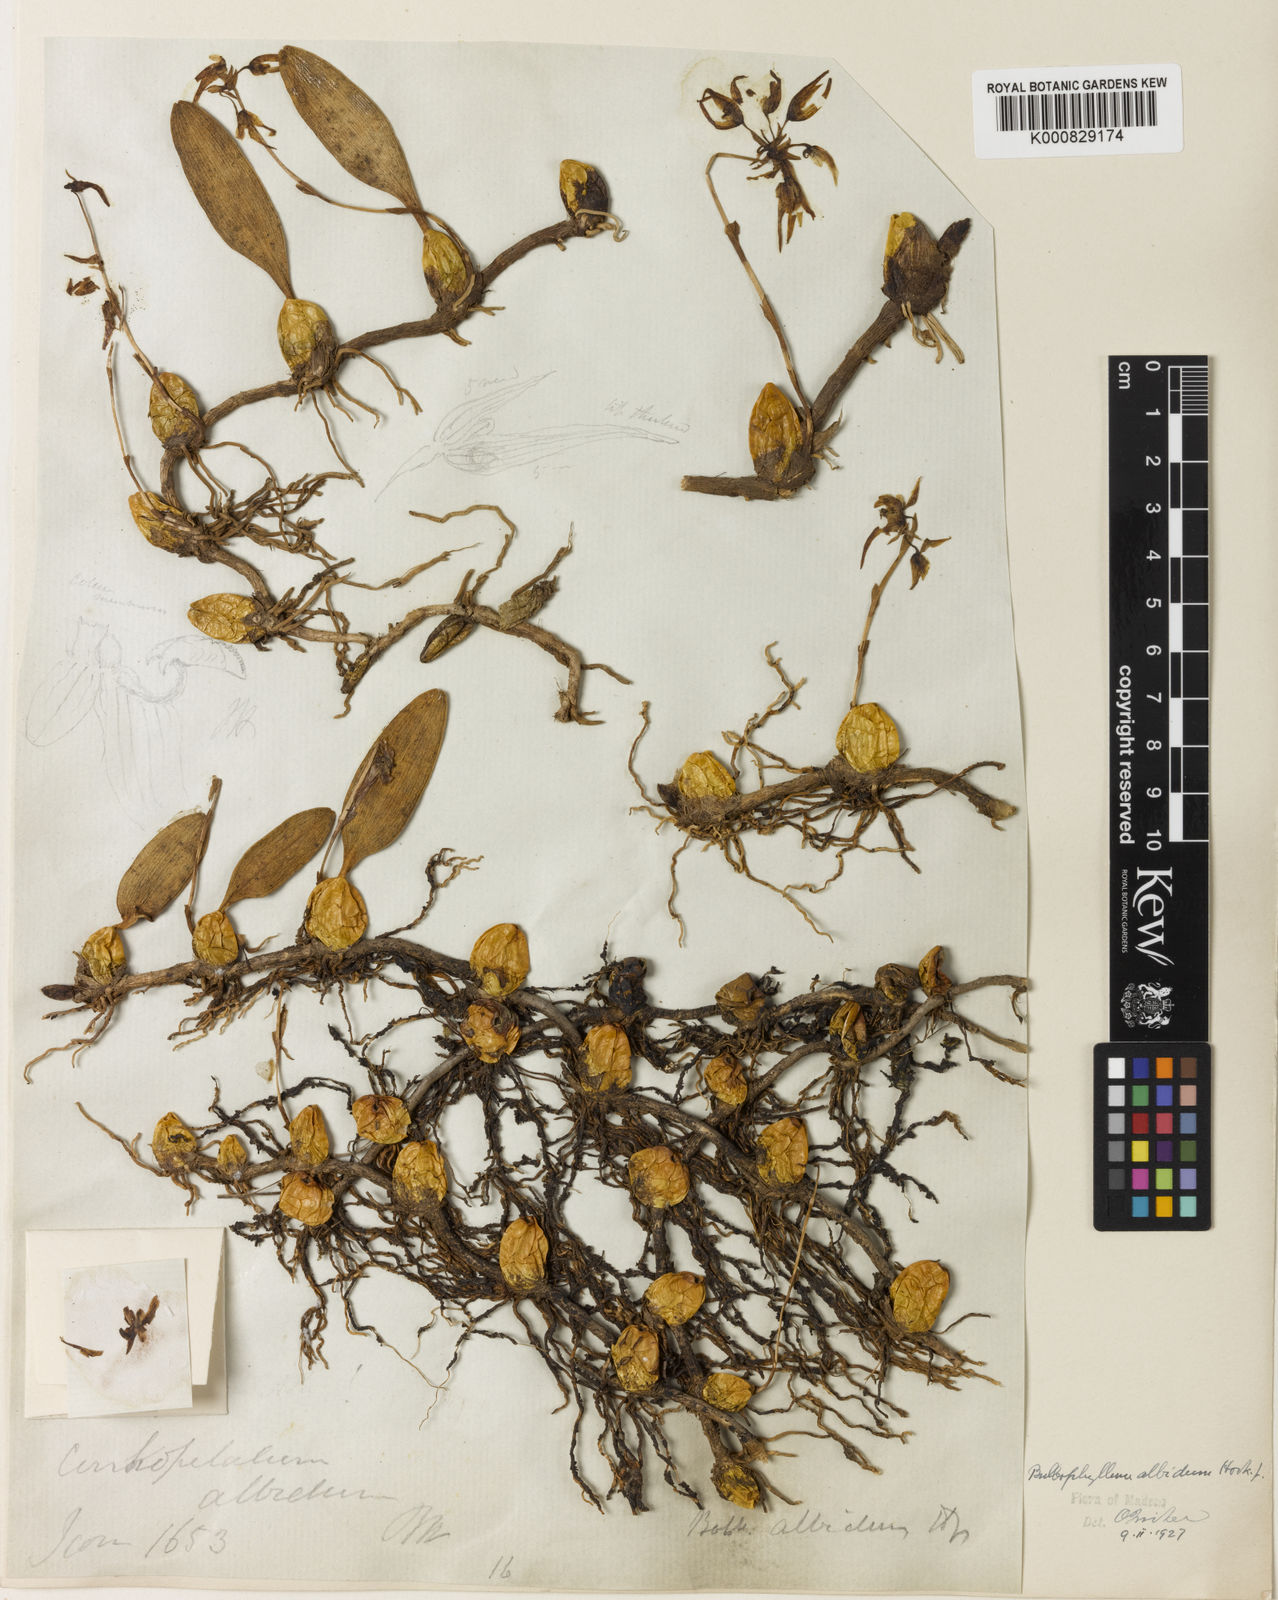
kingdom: Plantae
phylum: Tracheophyta
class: Liliopsida
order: Asparagales
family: Orchidaceae
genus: Bulbophyllum
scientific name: Bulbophyllum acutiflorum
